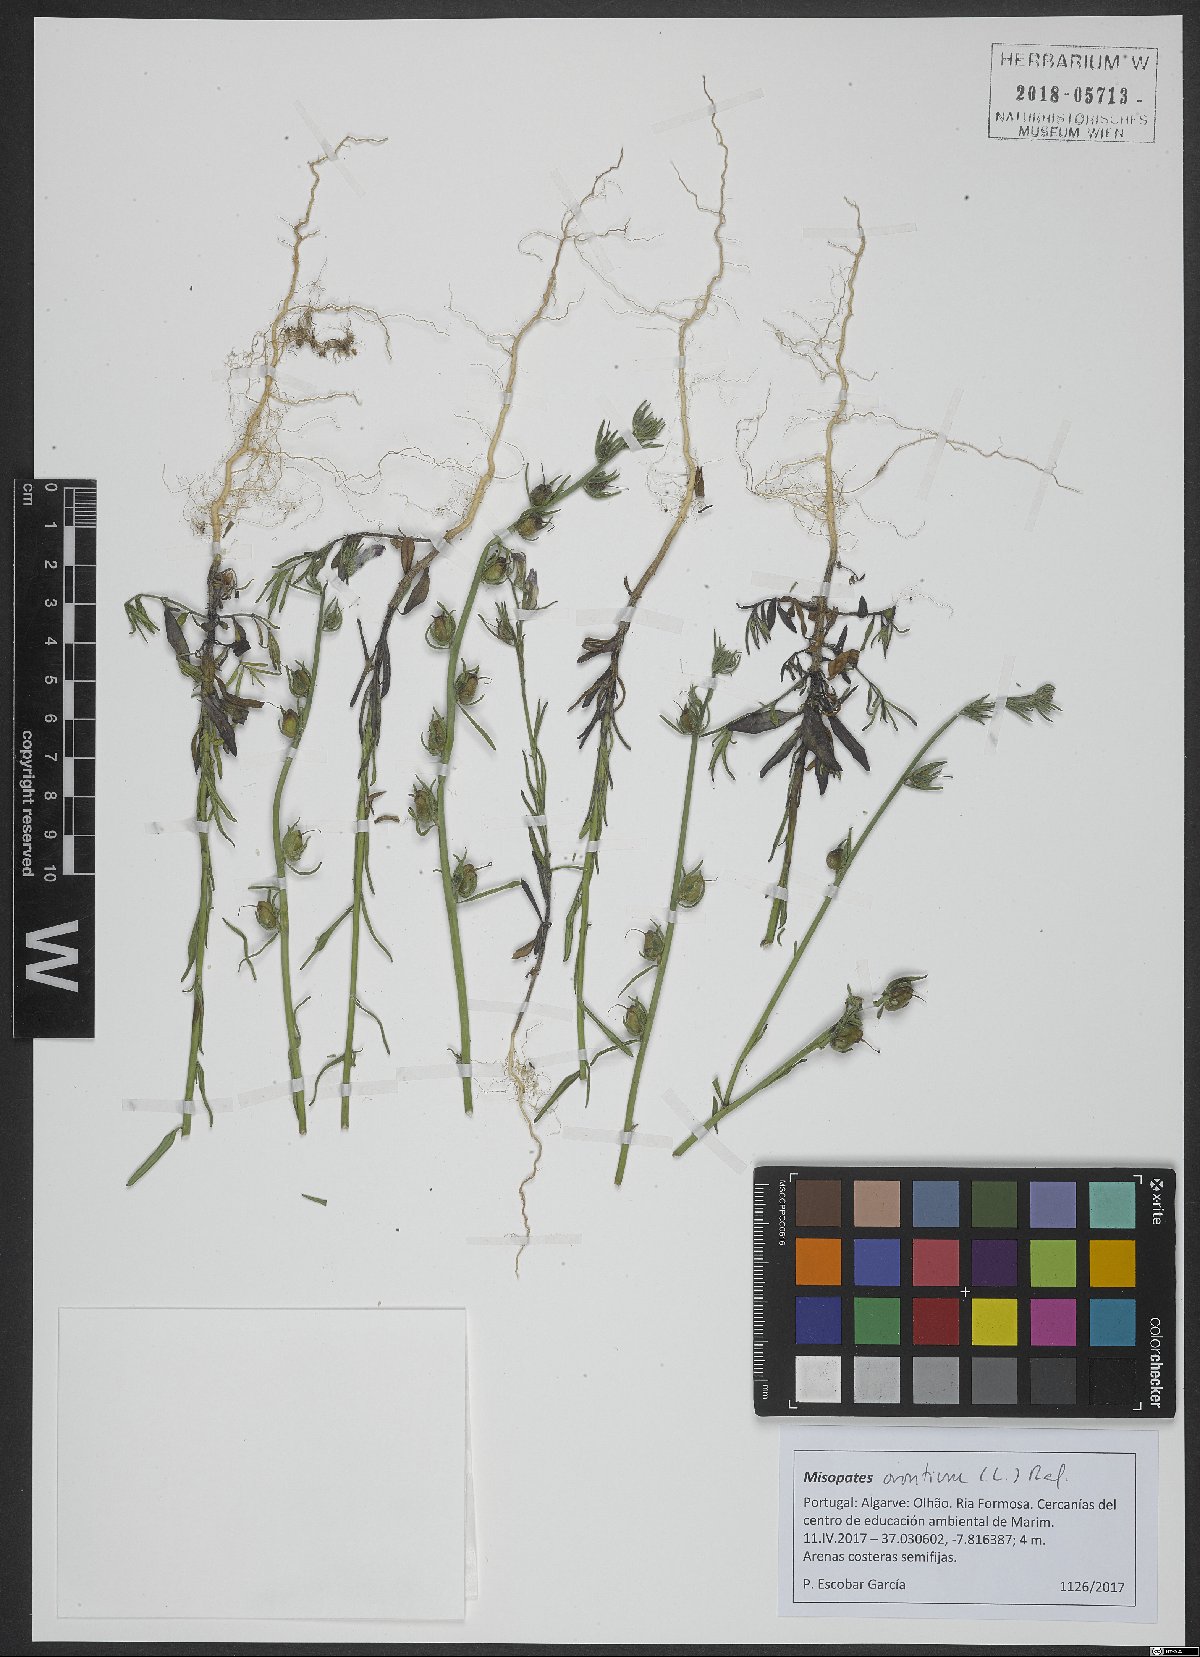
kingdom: Plantae
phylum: Tracheophyta
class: Magnoliopsida
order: Lamiales
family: Plantaginaceae
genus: Misopates
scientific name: Misopates orontium
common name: Weasel's-snout
